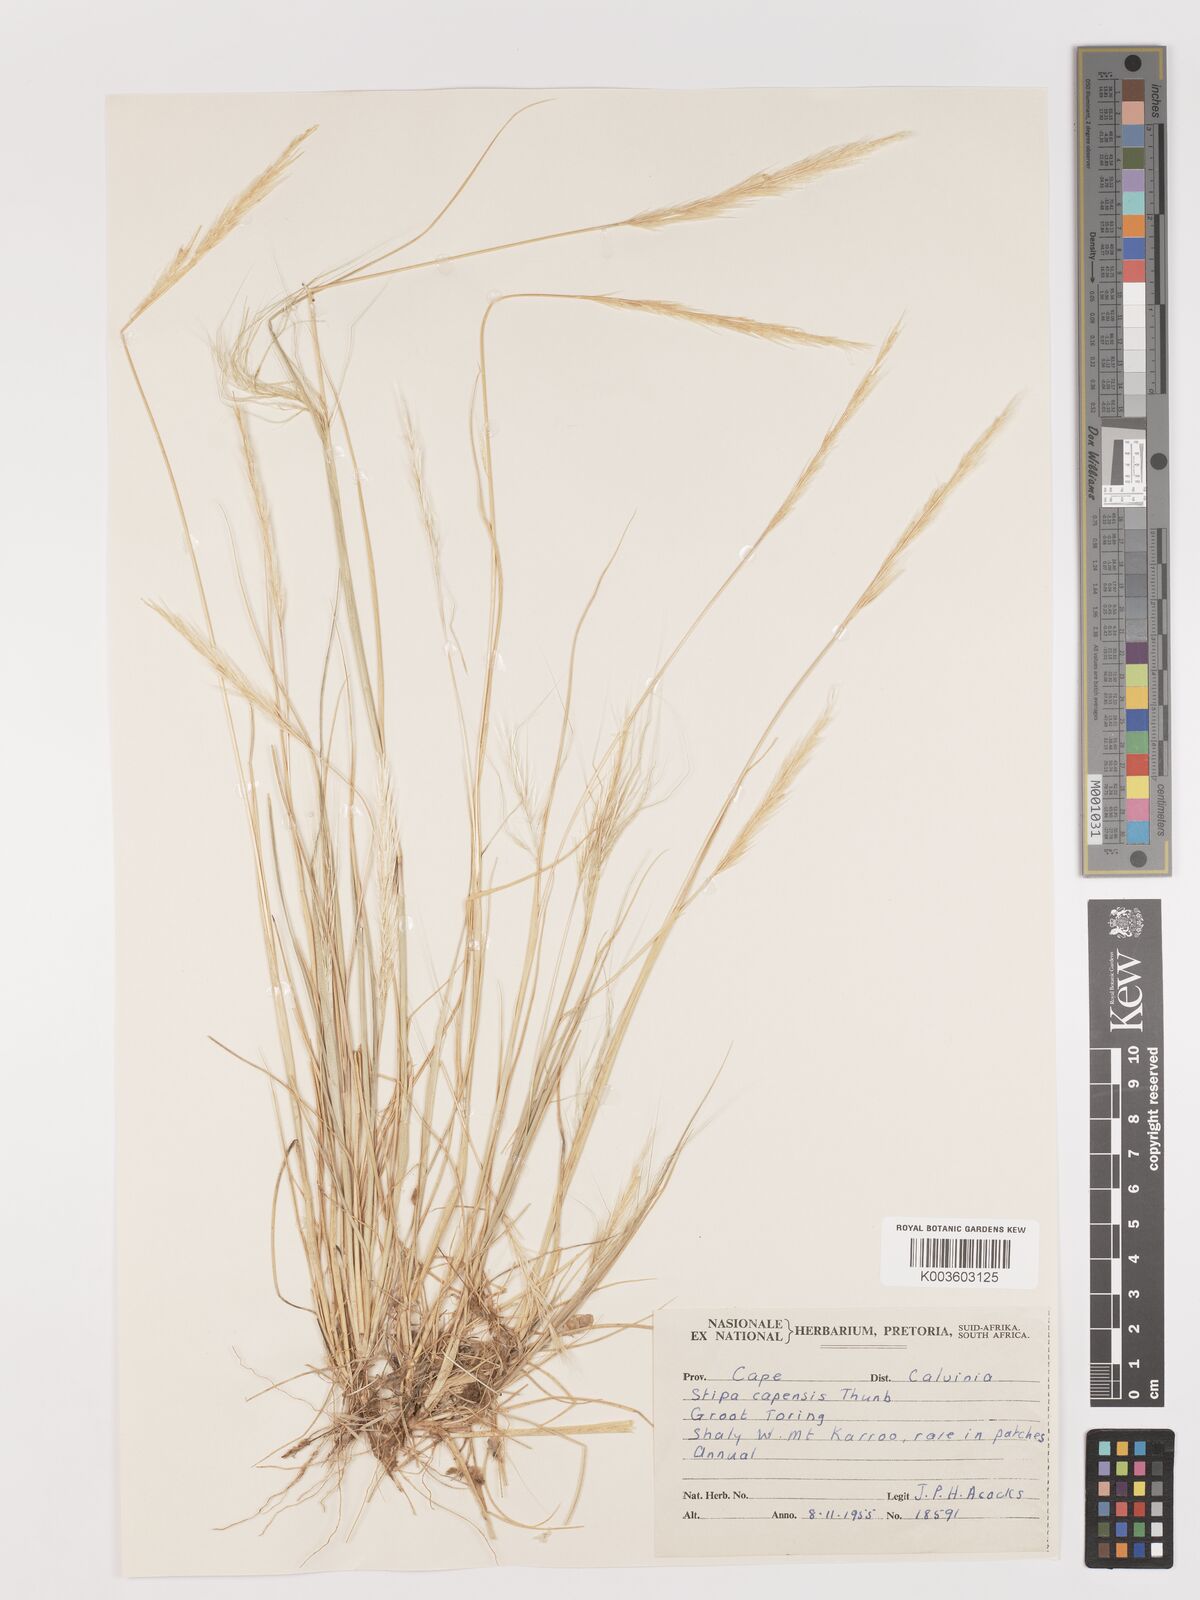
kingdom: Plantae
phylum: Tracheophyta
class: Liliopsida
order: Poales
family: Poaceae
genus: Stipellula
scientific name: Stipellula capensis
